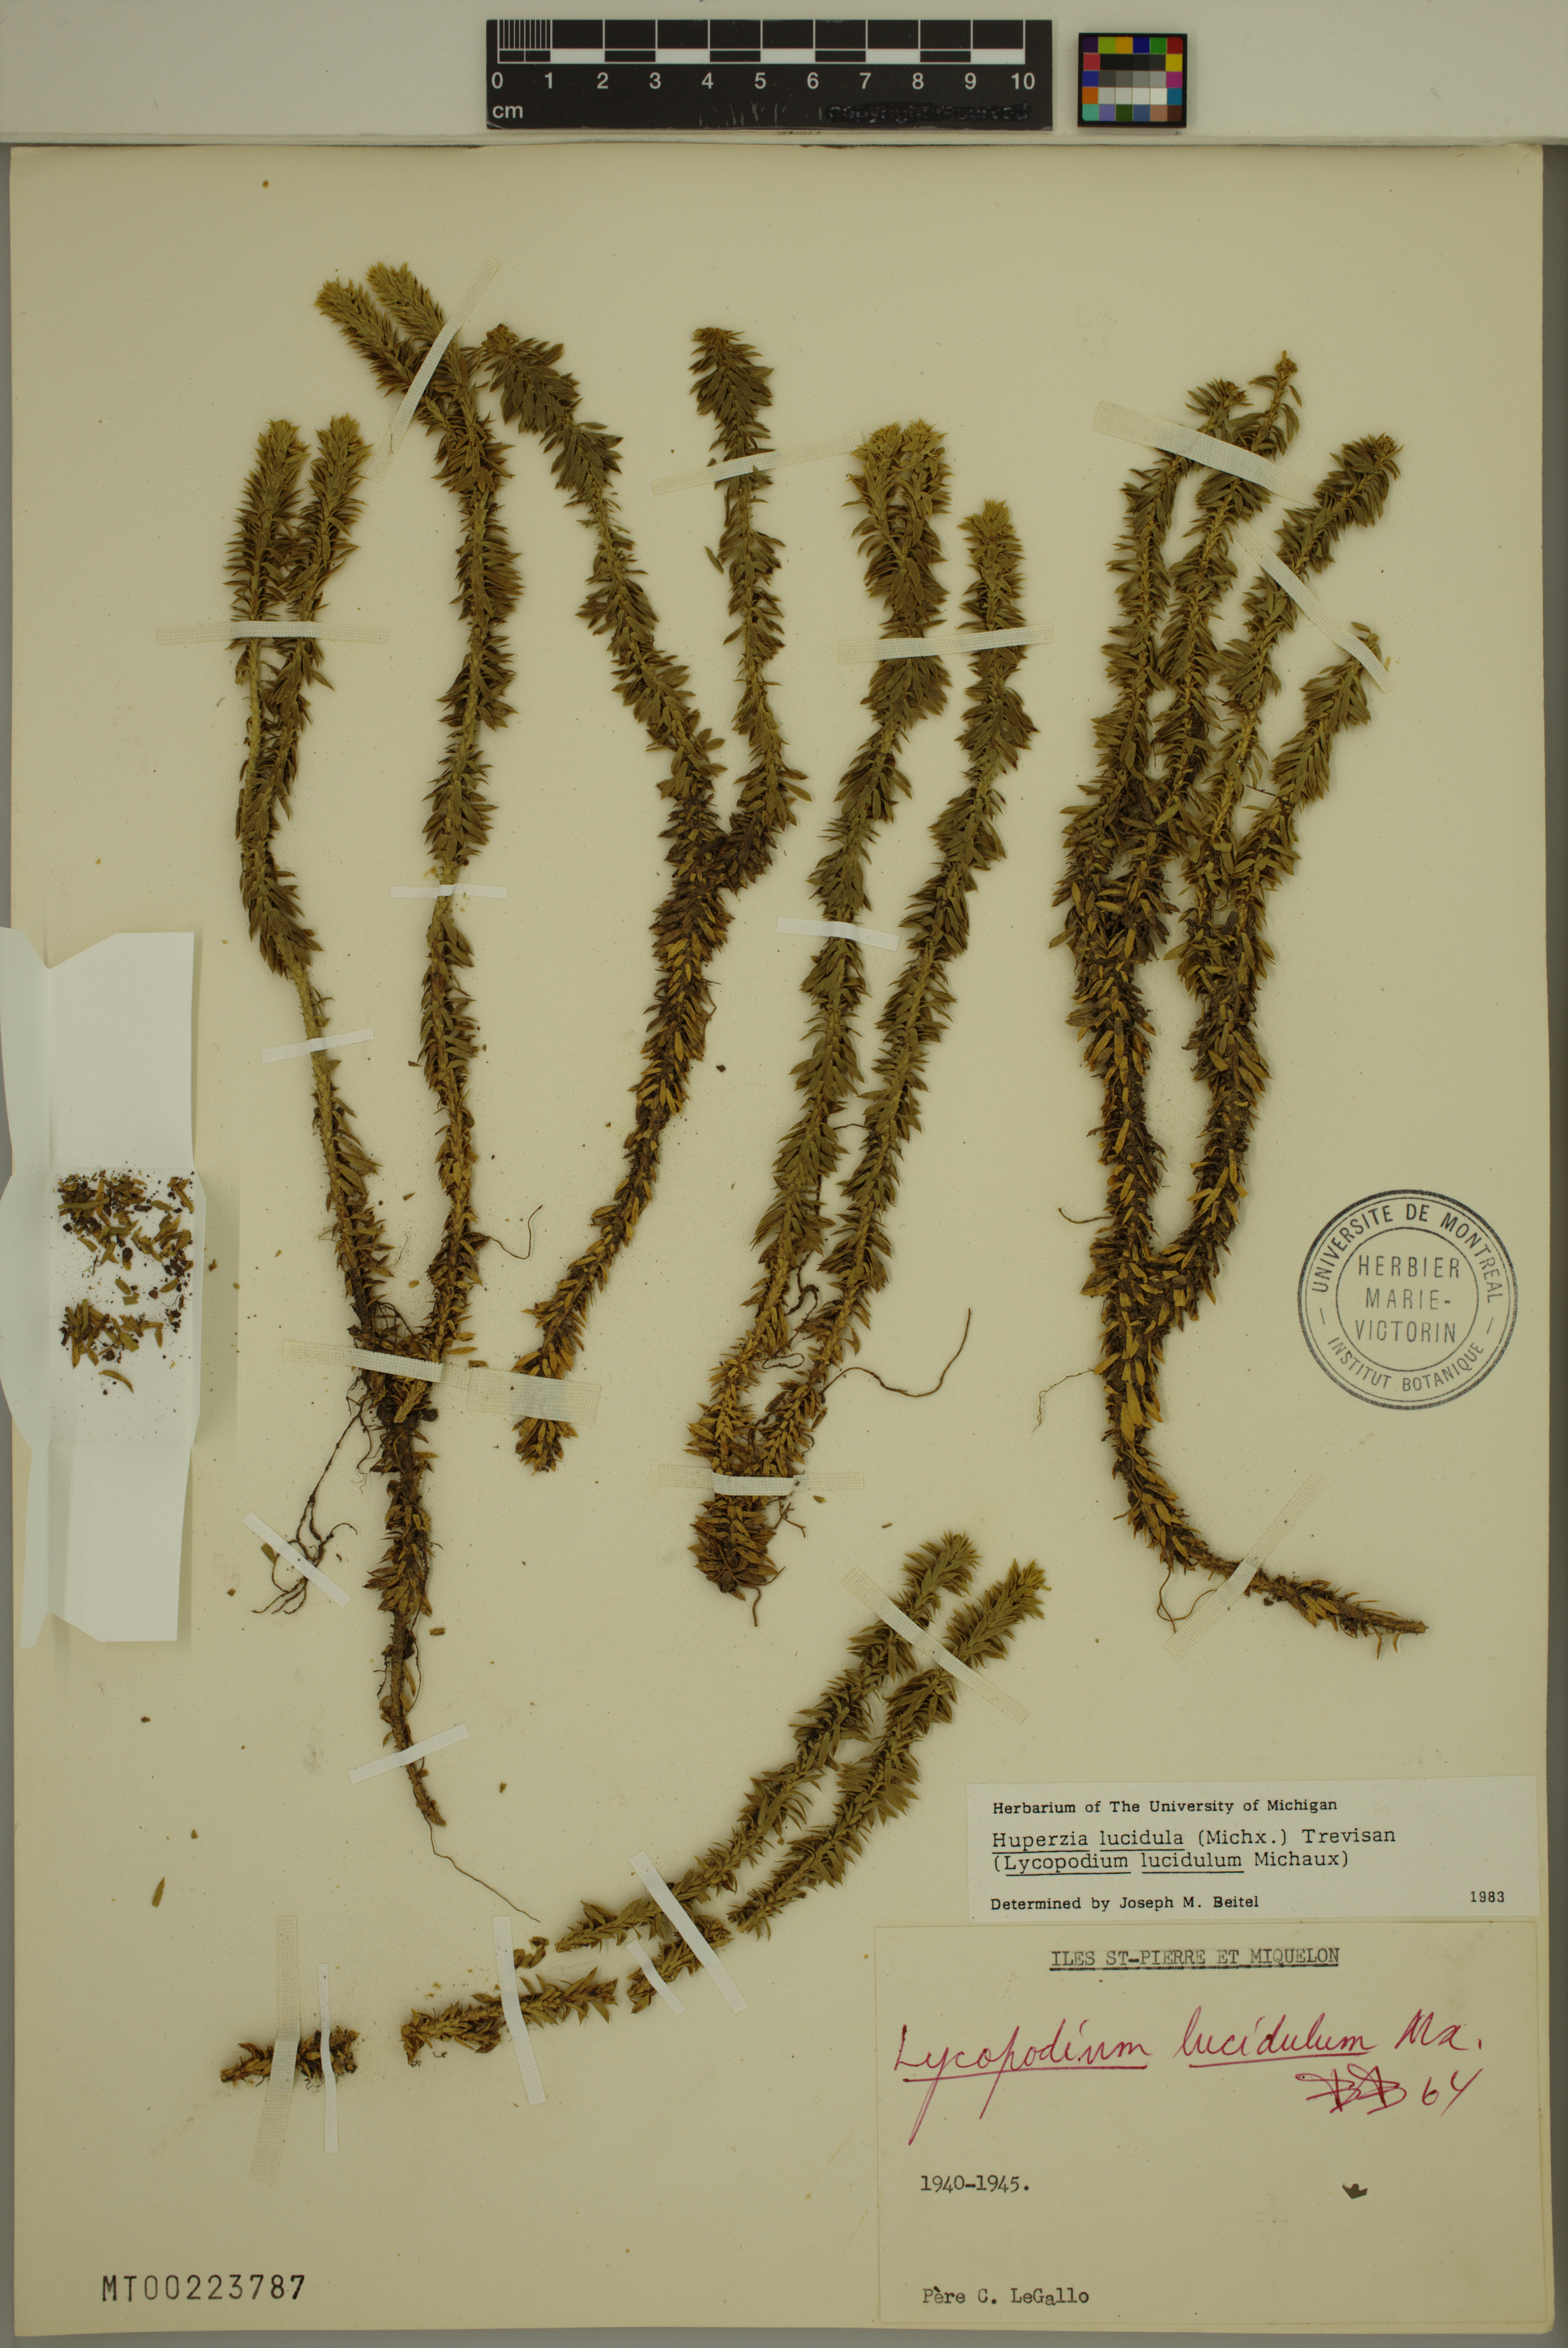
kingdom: Plantae
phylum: Tracheophyta
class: Lycopodiopsida
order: Lycopodiales
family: Lycopodiaceae
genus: Huperzia
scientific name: Huperzia lucidula
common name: Shining clubmoss
